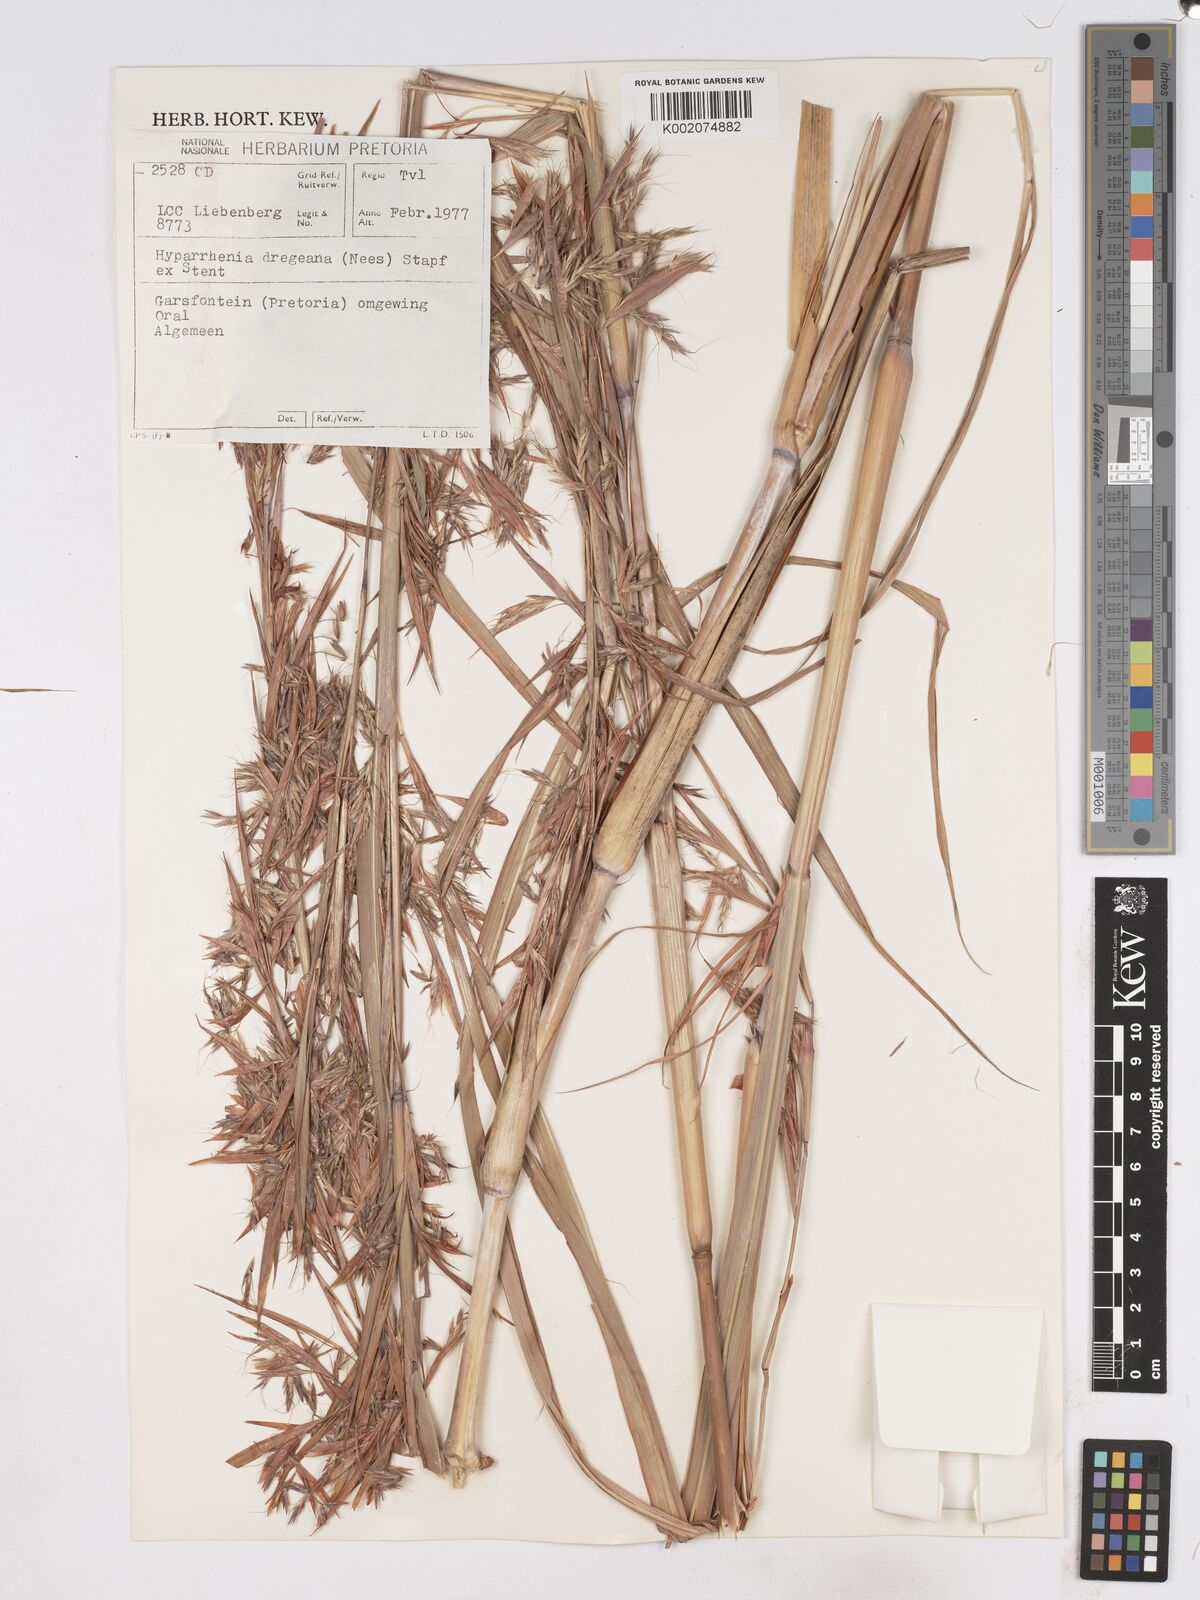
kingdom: Plantae
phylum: Tracheophyta
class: Liliopsida
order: Poales
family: Poaceae
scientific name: Poaceae
